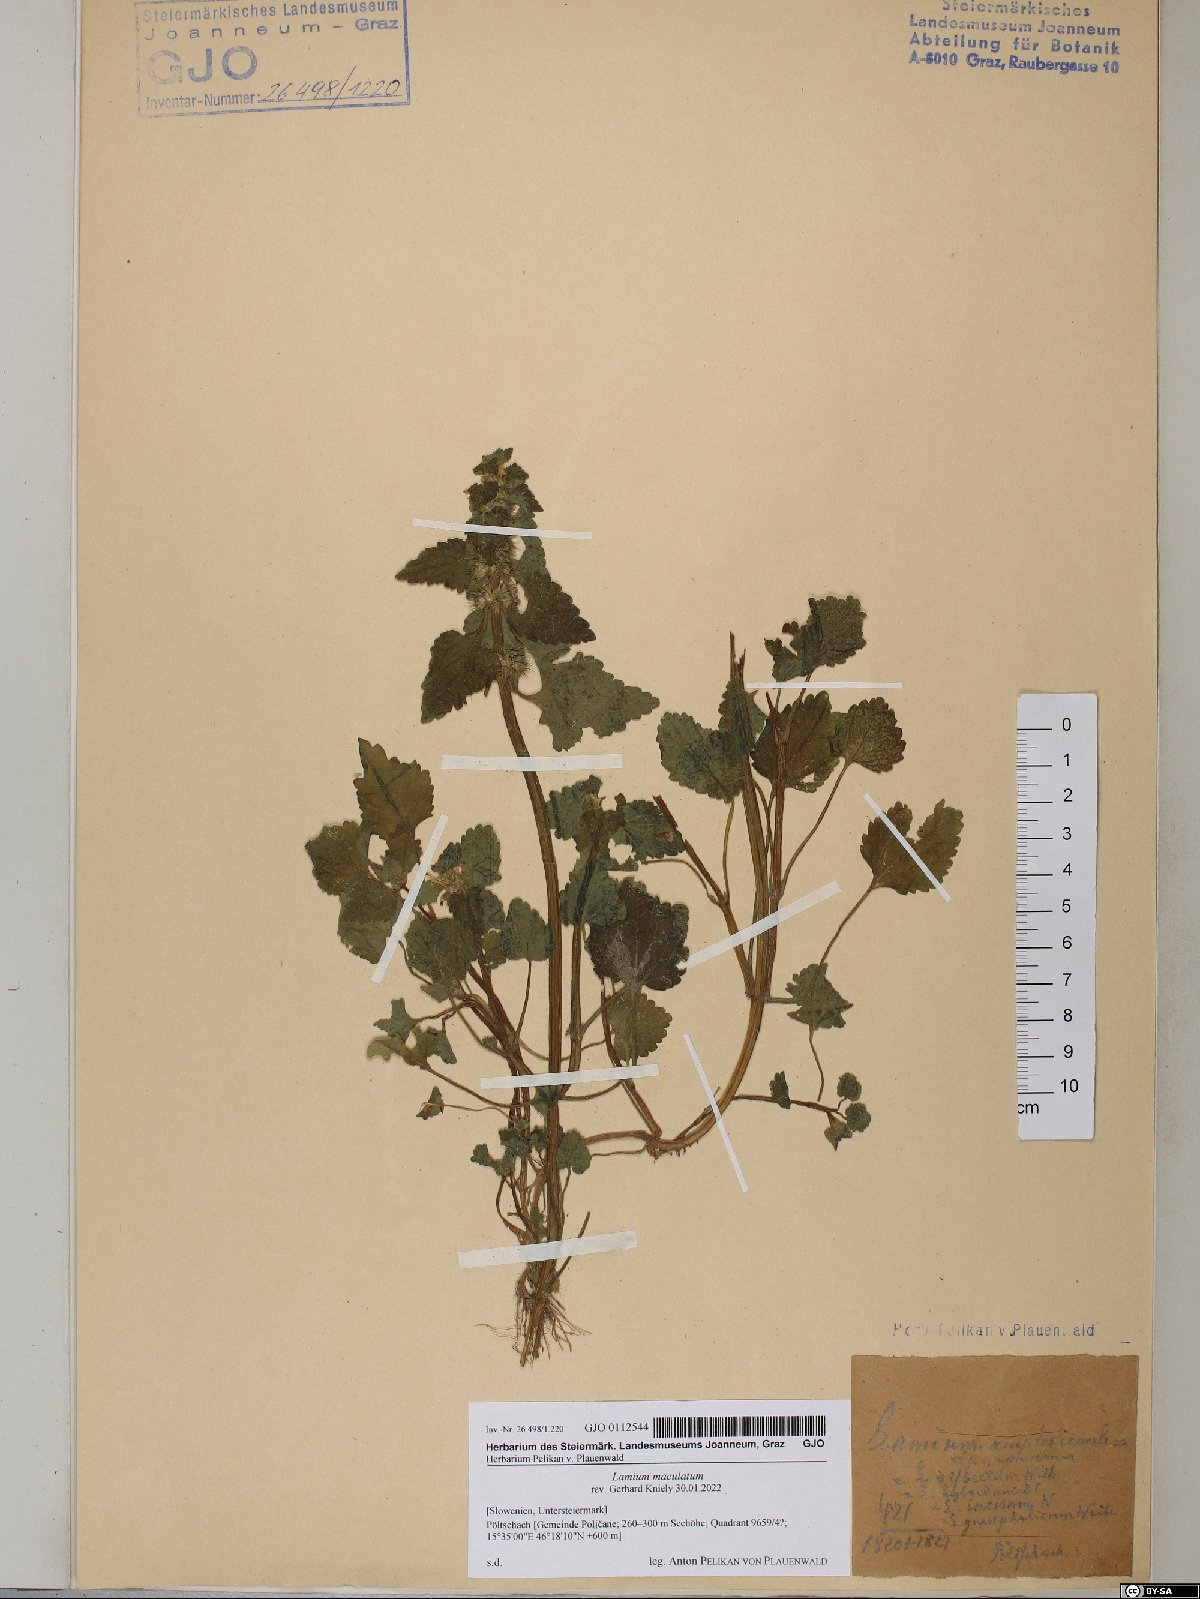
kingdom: Plantae
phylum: Tracheophyta
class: Magnoliopsida
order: Lamiales
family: Lamiaceae
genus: Lamium
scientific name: Lamium maculatum
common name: Spotted dead-nettle
